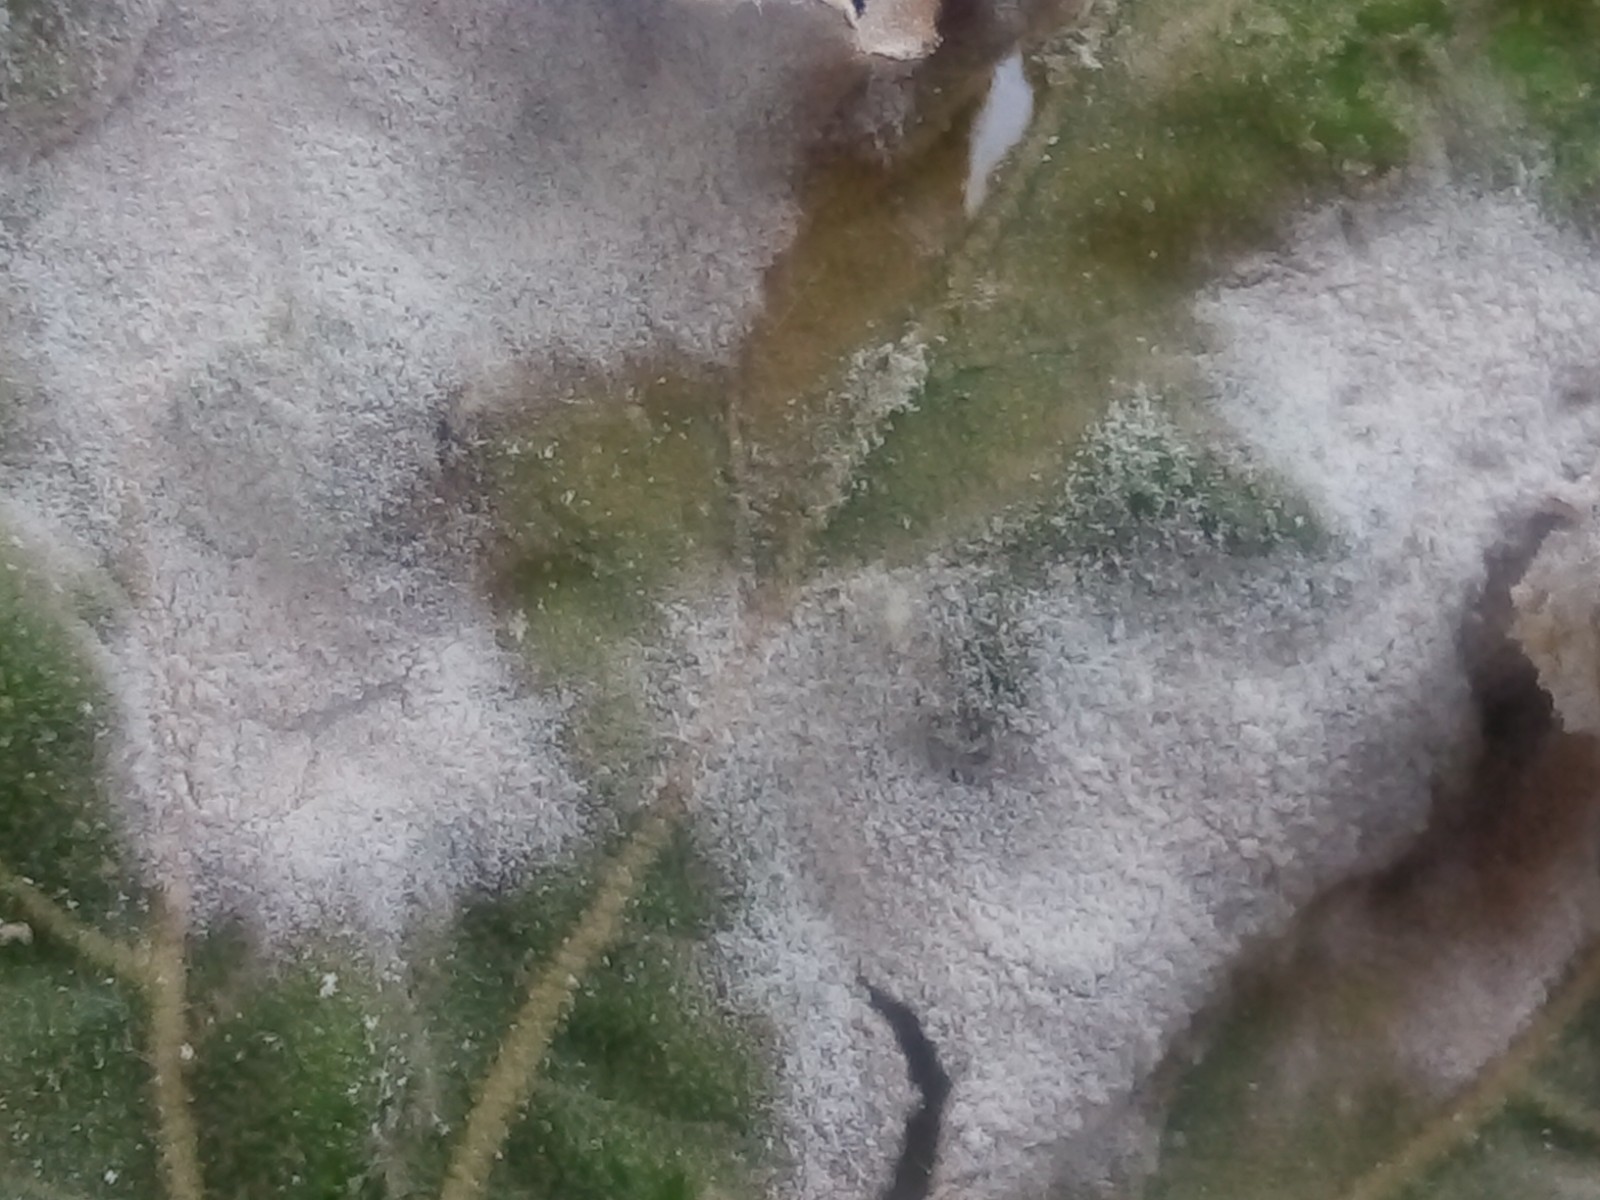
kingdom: Fungi
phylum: Ascomycota
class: Leotiomycetes
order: Helotiales
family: Erysiphaceae
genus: Erysiphe
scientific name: Erysiphe platani
